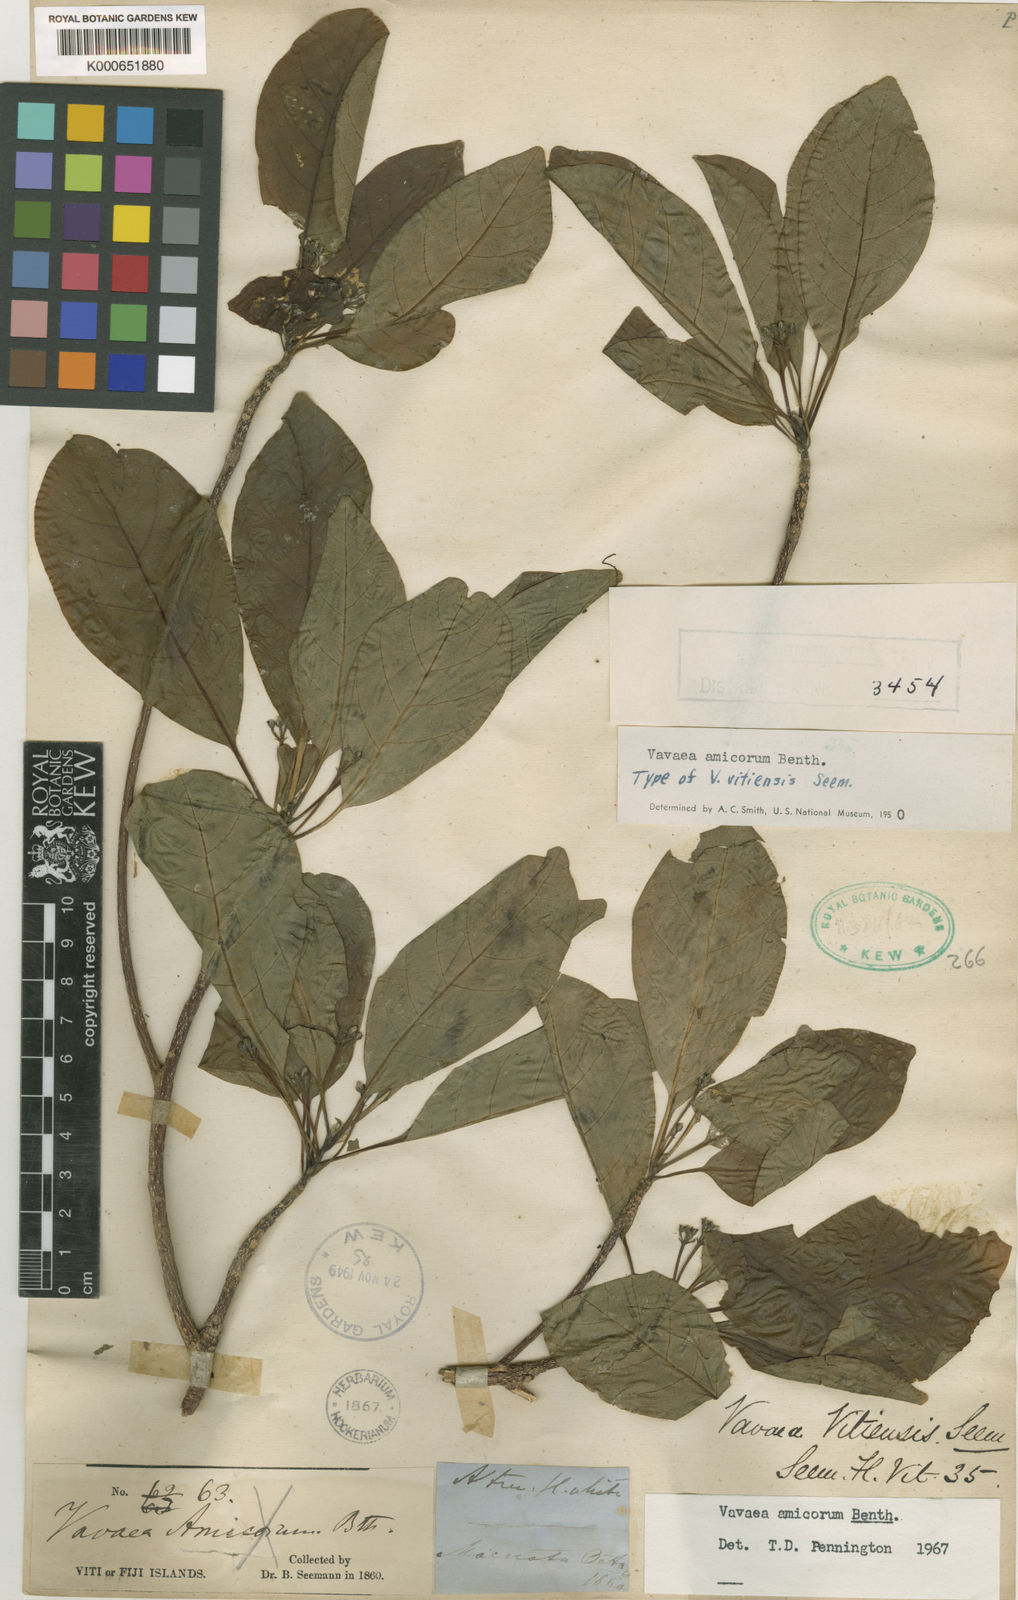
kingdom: Plantae
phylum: Tracheophyta
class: Magnoliopsida
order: Sapindales
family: Meliaceae
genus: Vavaea
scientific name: Vavaea amicorum
